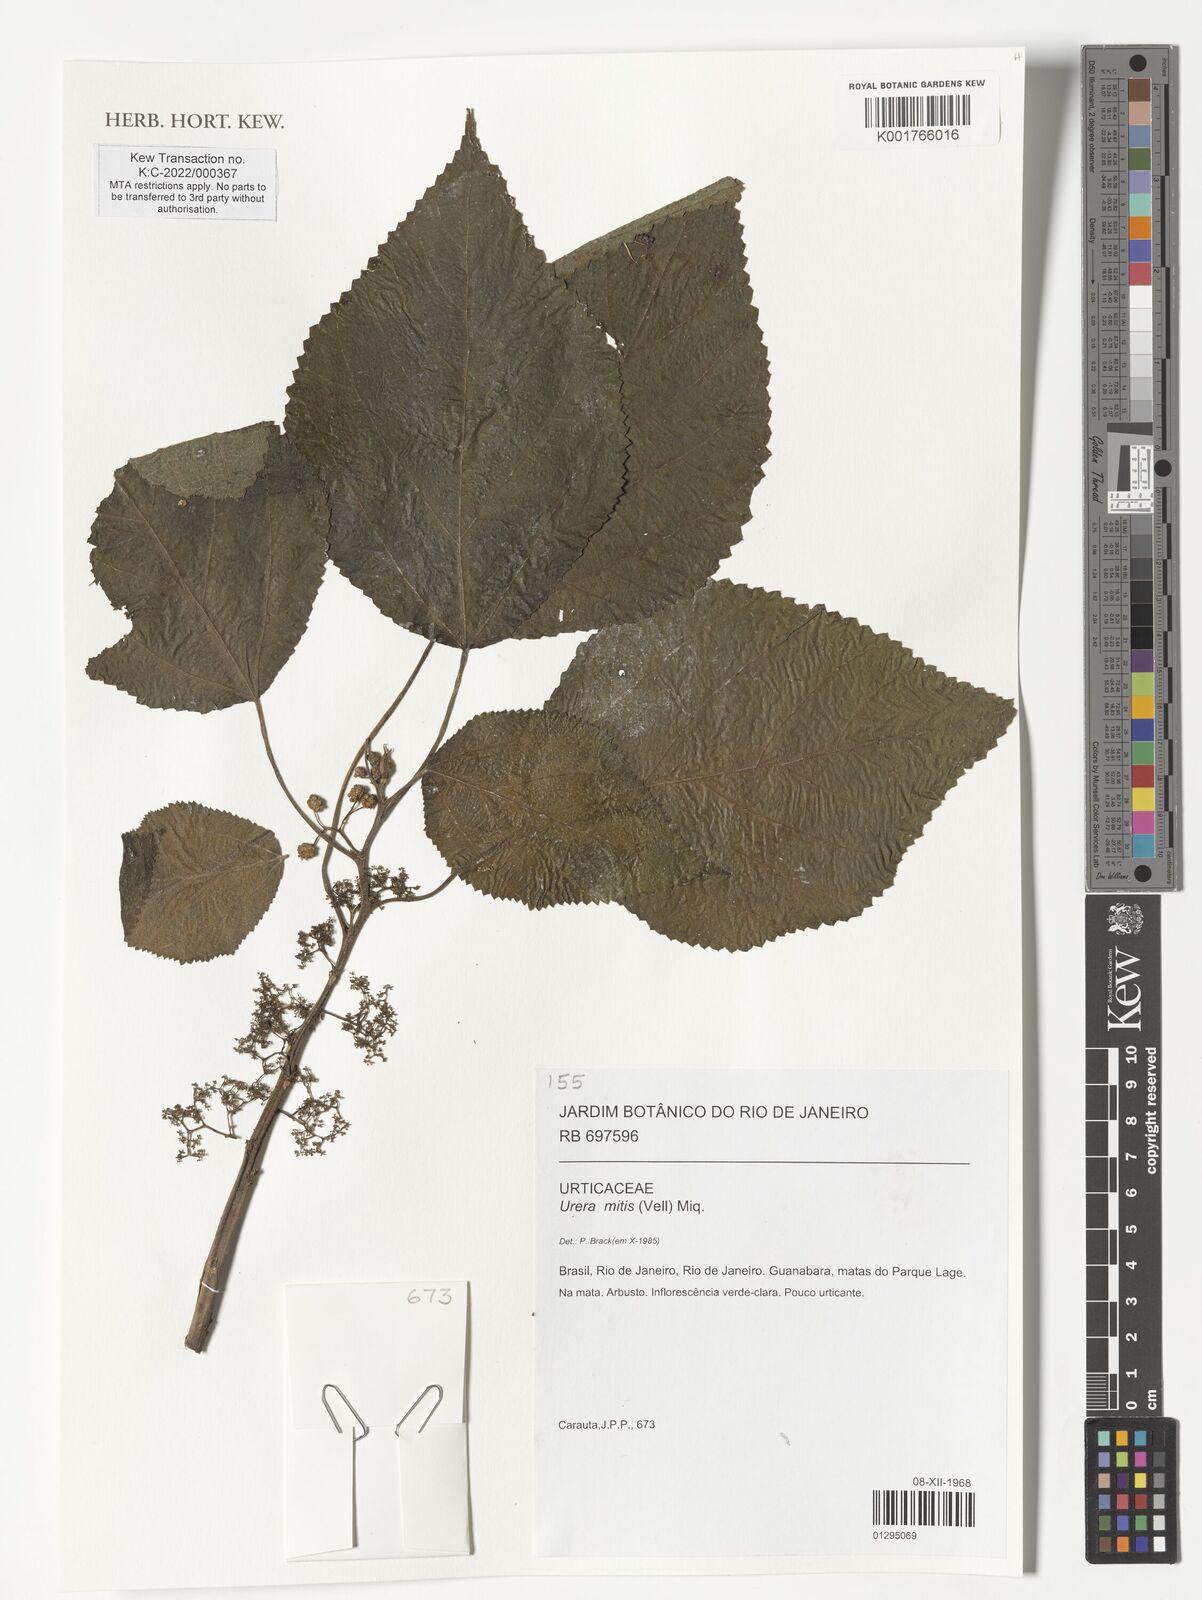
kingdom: Plantae
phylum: Tracheophyta
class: Magnoliopsida
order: Rosales
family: Urticaceae
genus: Urera
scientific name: Urera caracasana
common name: Flameberry
